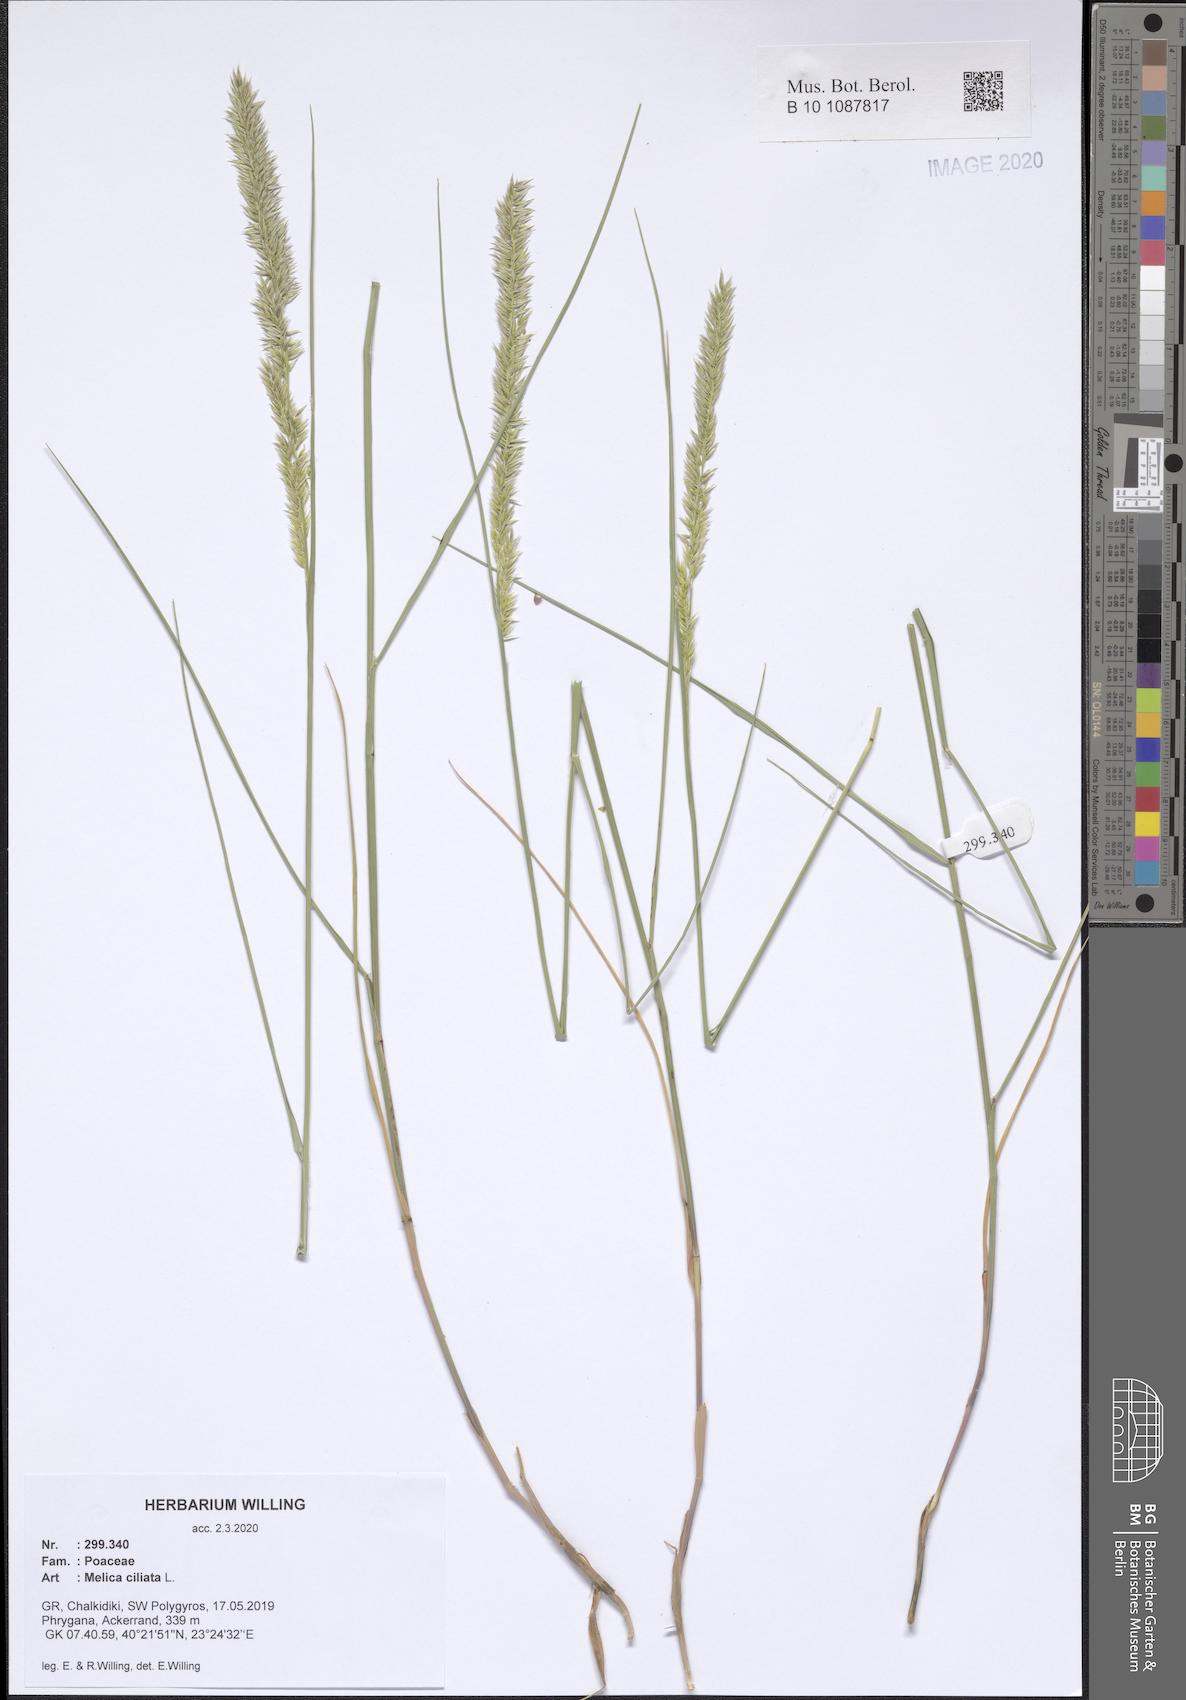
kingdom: Plantae
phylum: Tracheophyta
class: Liliopsida
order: Poales
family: Poaceae
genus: Melica
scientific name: Melica ciliata
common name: Hairy melicgrass
